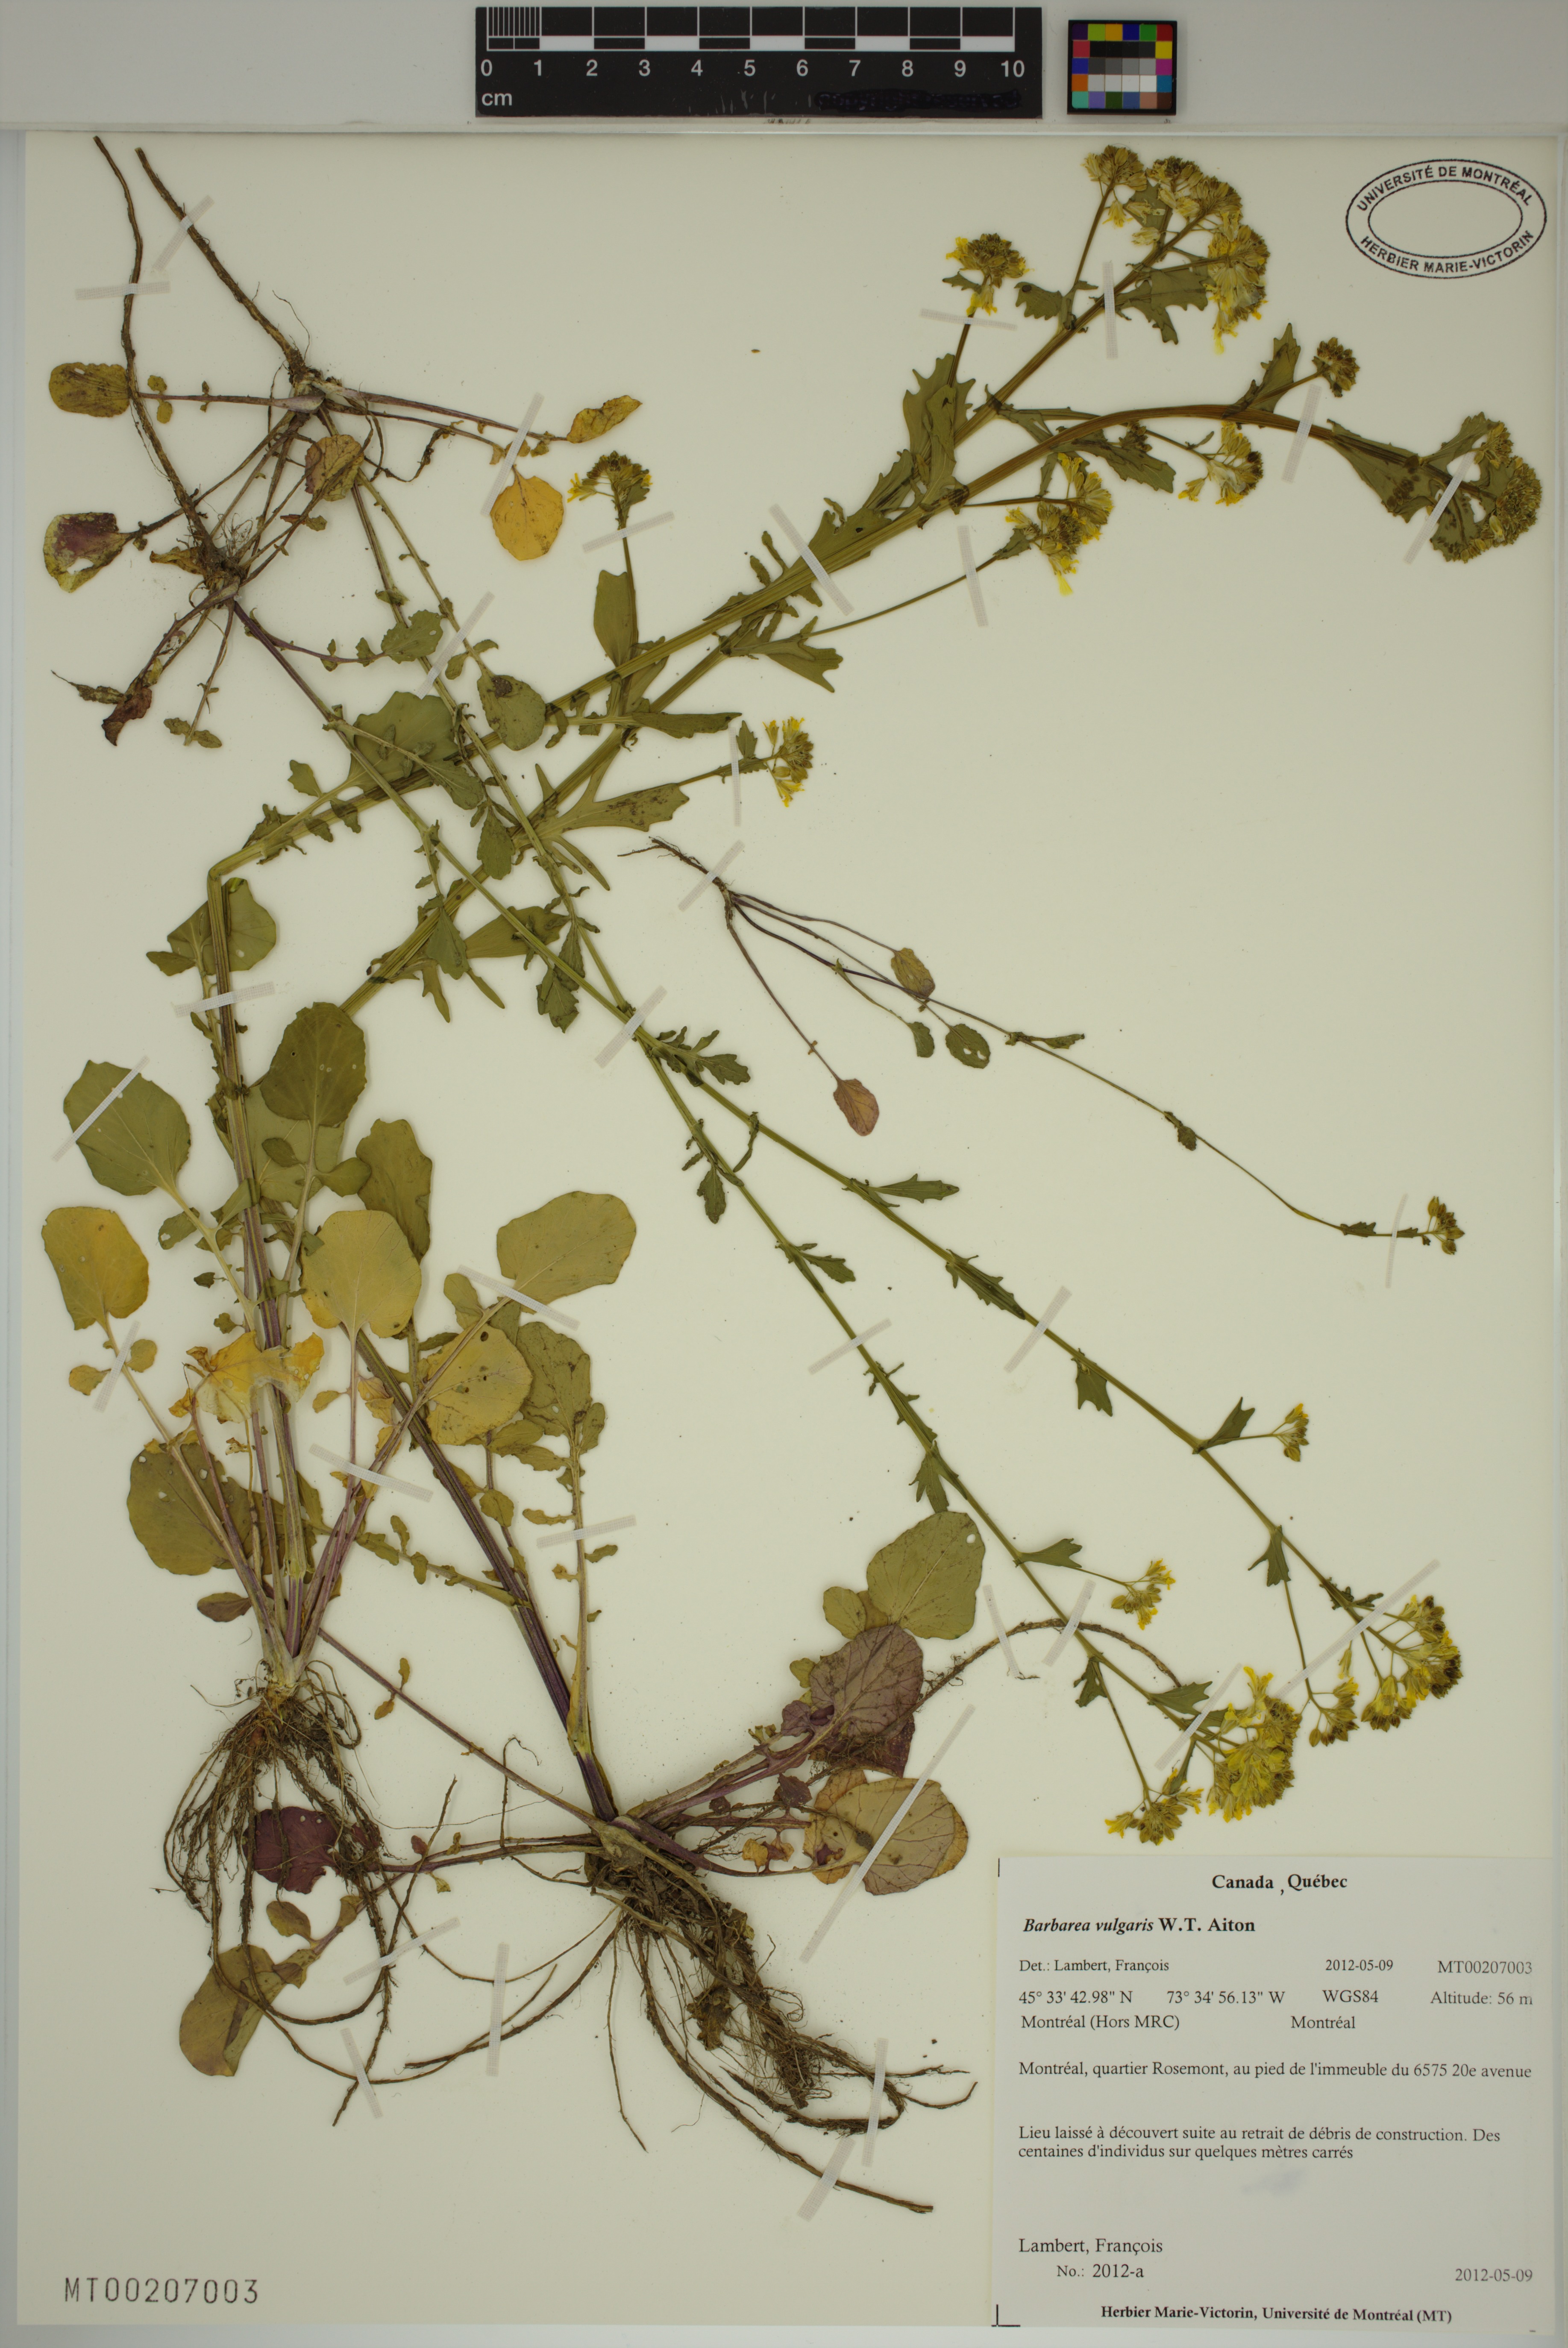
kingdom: Plantae
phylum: Tracheophyta
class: Magnoliopsida
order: Brassicales
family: Brassicaceae
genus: Barbarea
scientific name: Barbarea vulgaris
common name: Cressy-greens
